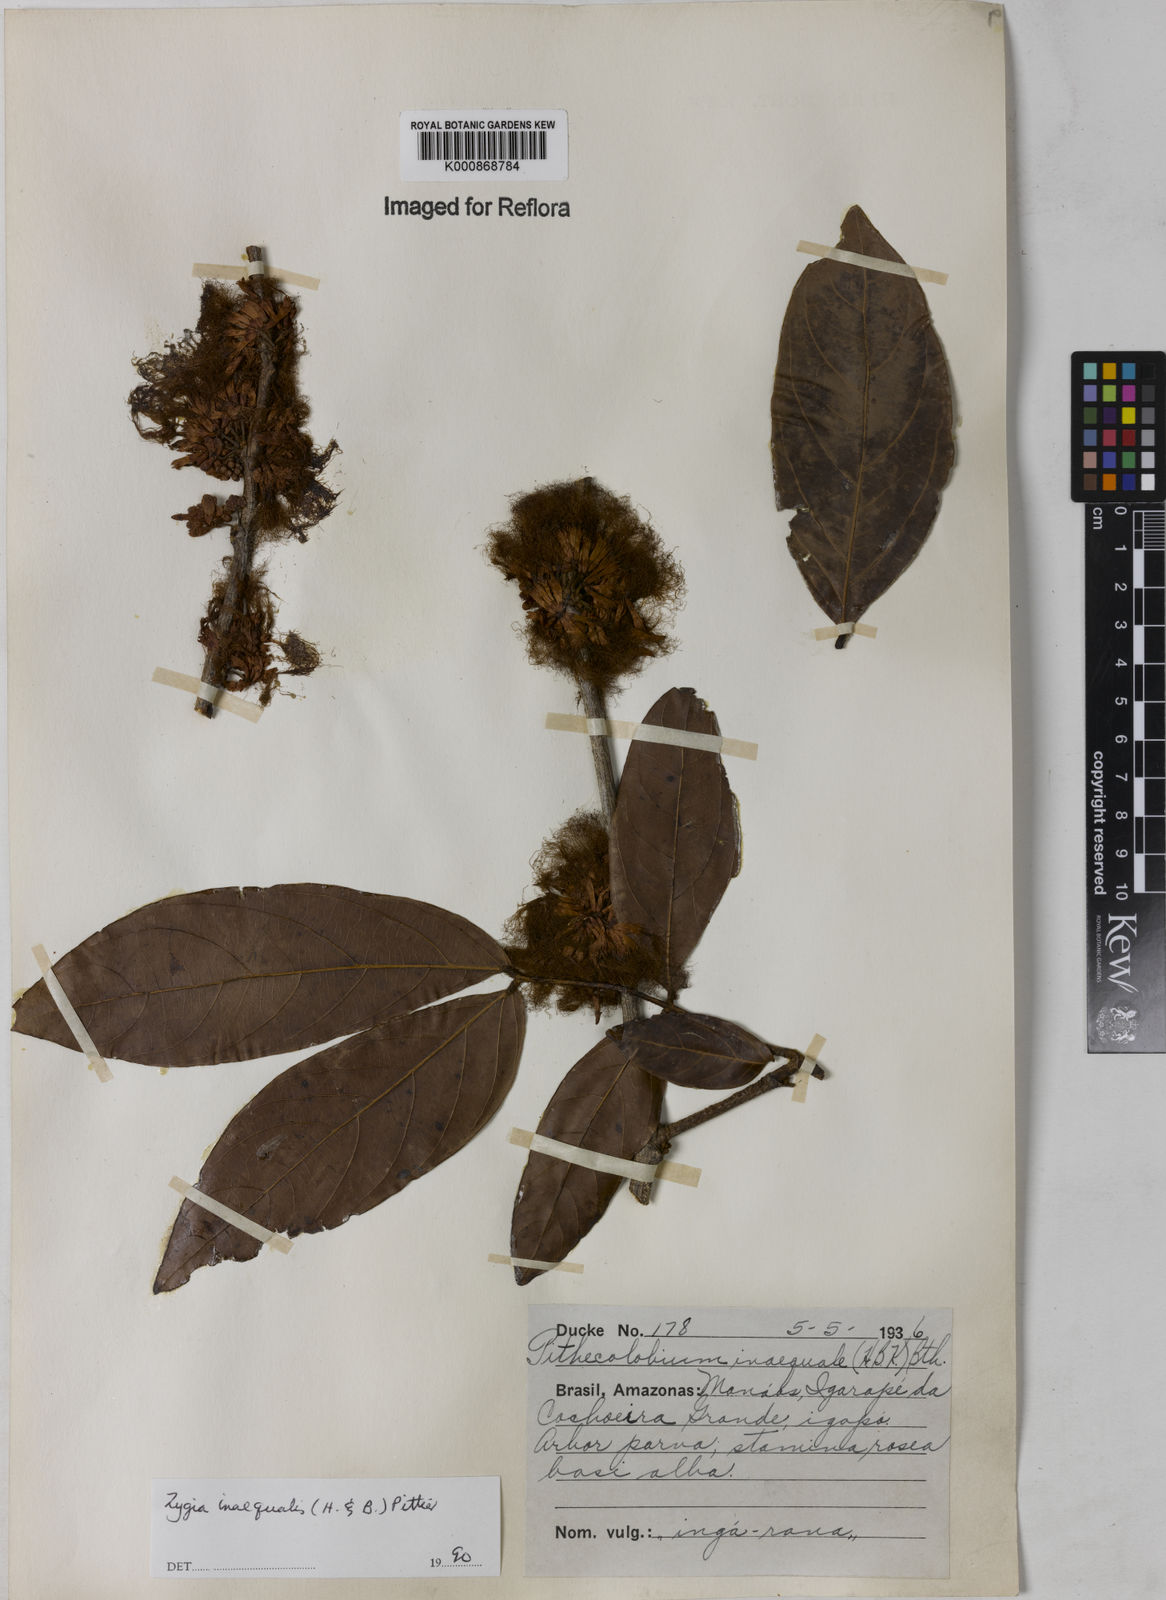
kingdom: Plantae
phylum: Tracheophyta
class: Magnoliopsida
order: Fabales
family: Fabaceae
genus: Zygia
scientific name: Zygia inaequalis
